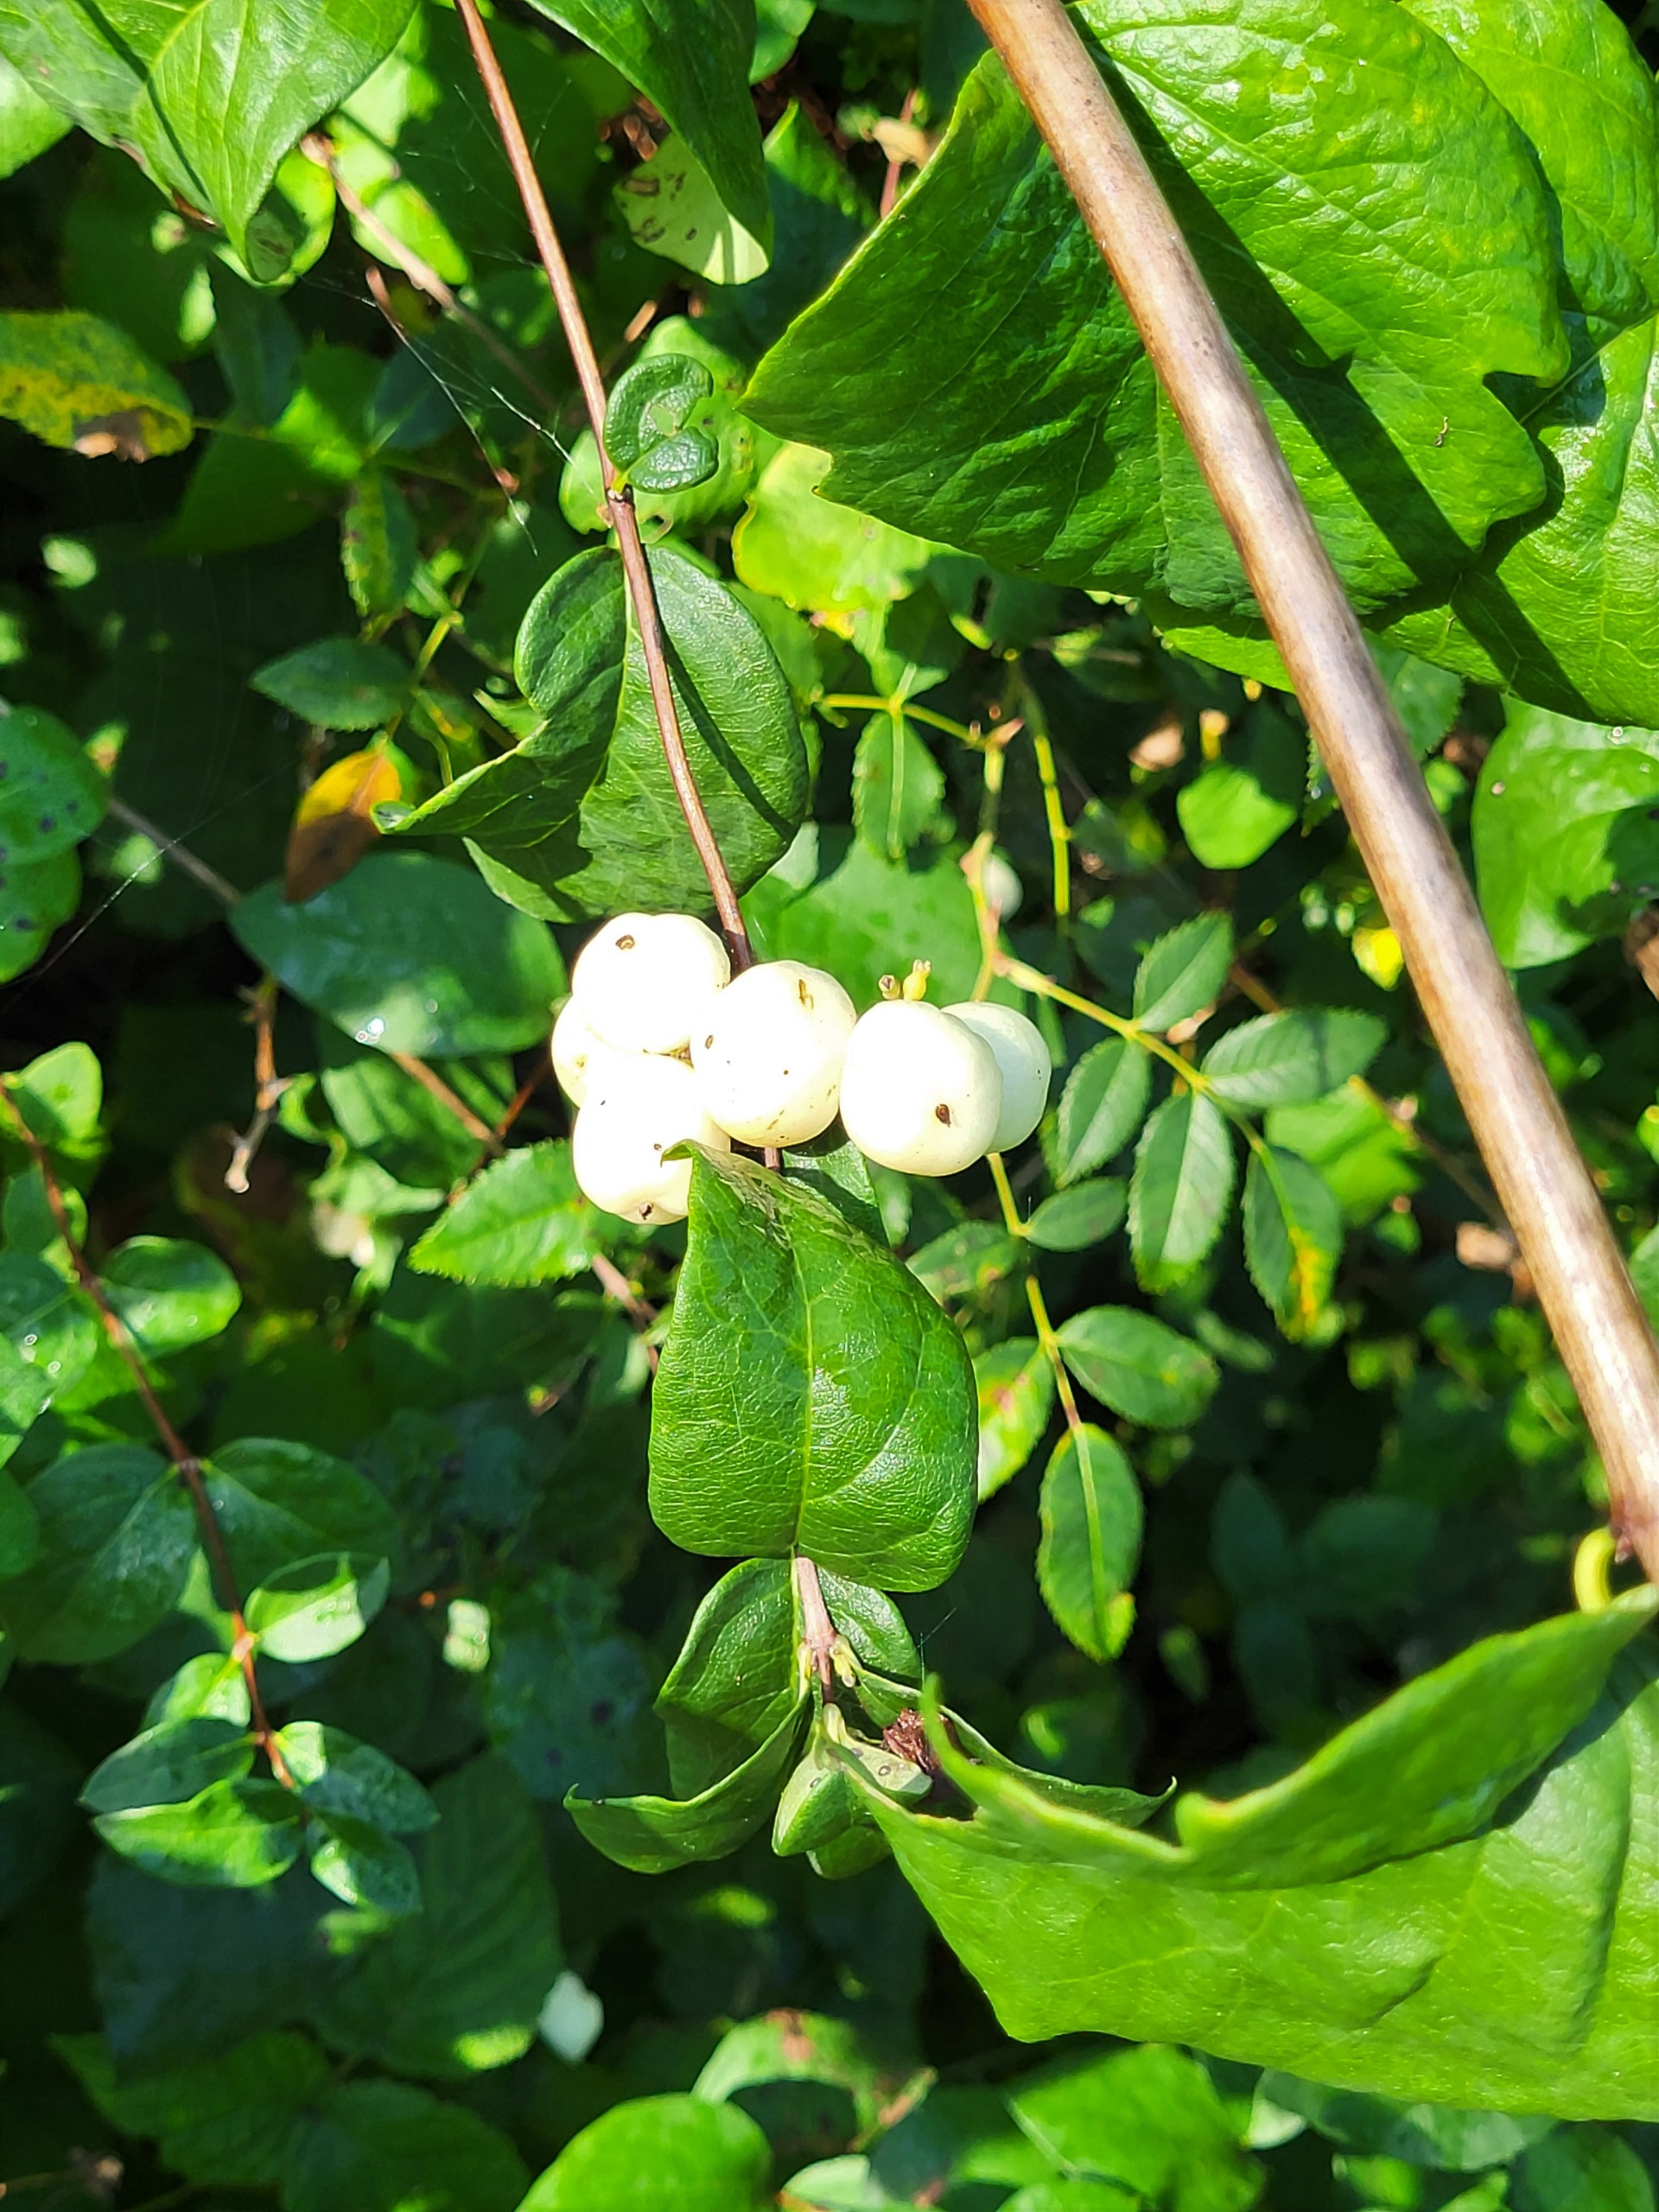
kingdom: Plantae
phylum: Tracheophyta
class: Magnoliopsida
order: Dipsacales
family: Caprifoliaceae
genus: Symphoricarpos
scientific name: Symphoricarpos albus
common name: Almindelig snebær
